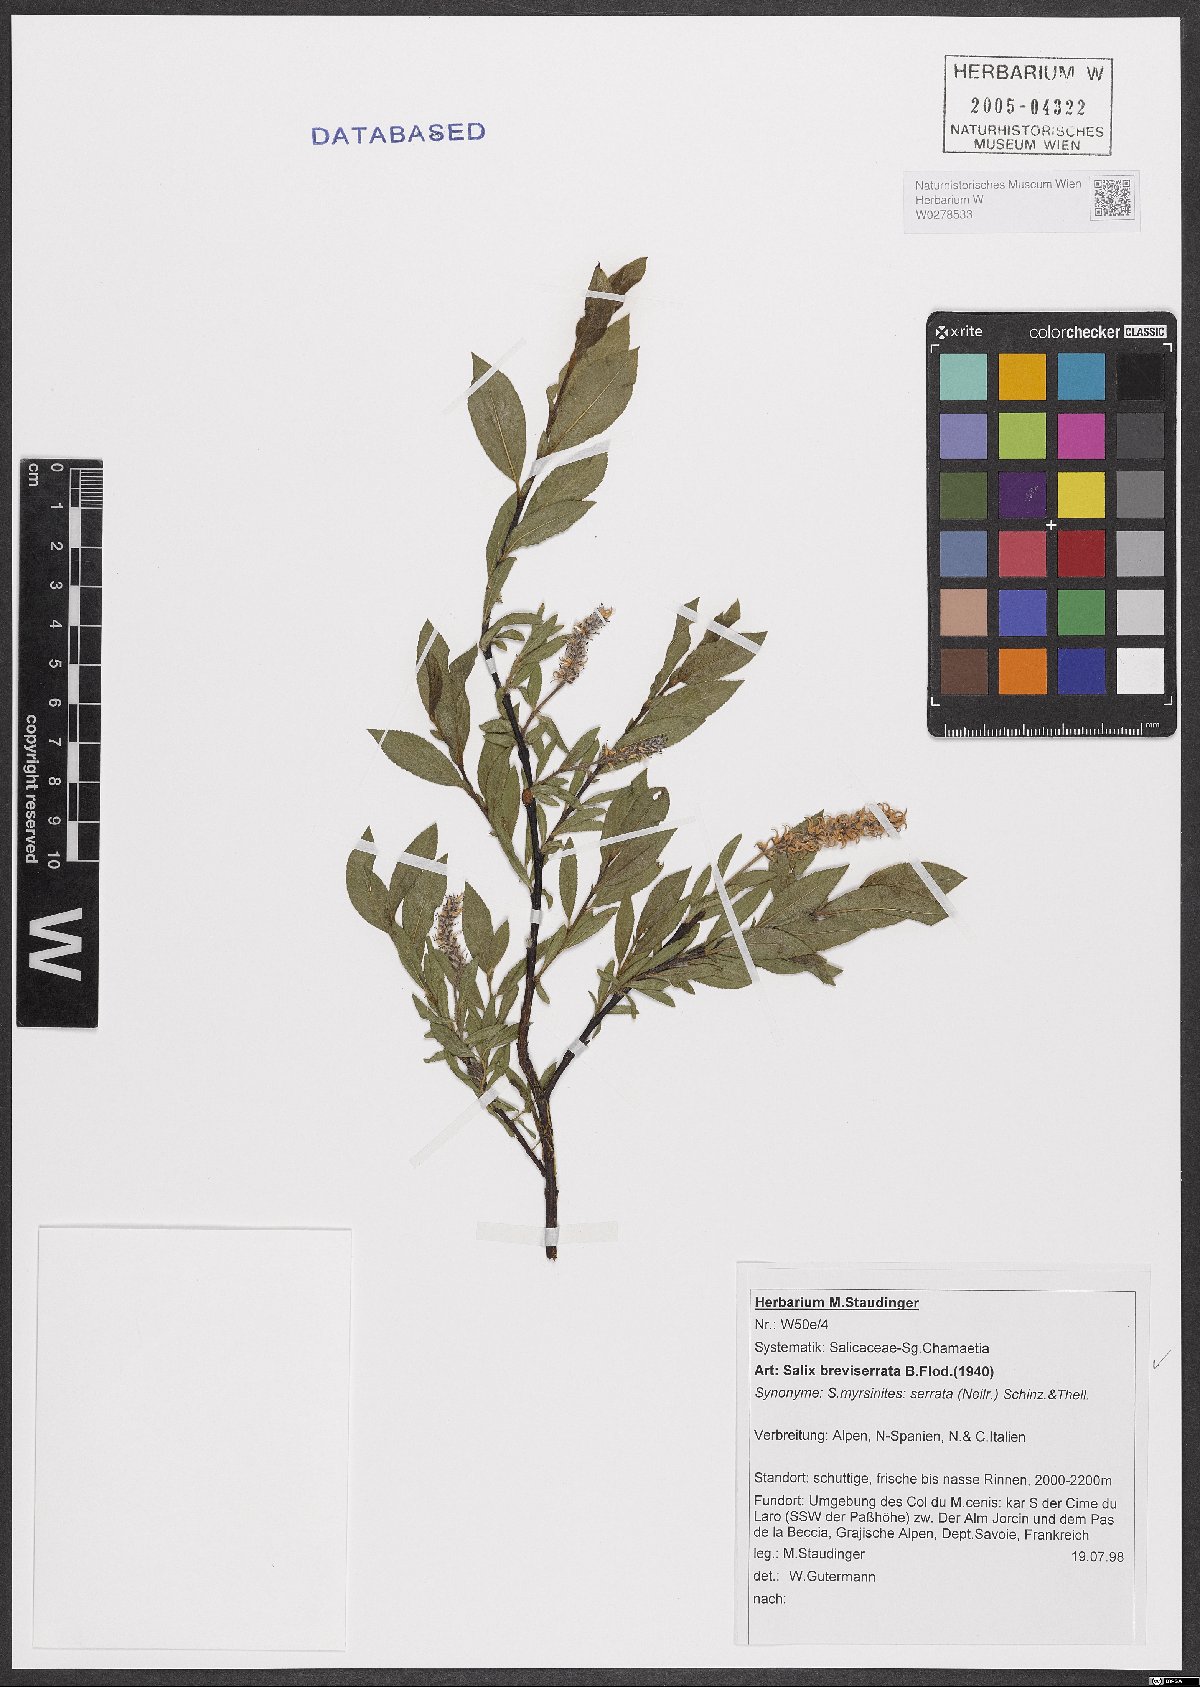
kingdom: Plantae
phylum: Tracheophyta
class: Magnoliopsida
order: Malpighiales
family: Salicaceae
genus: Salix
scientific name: Salix breviserrata
